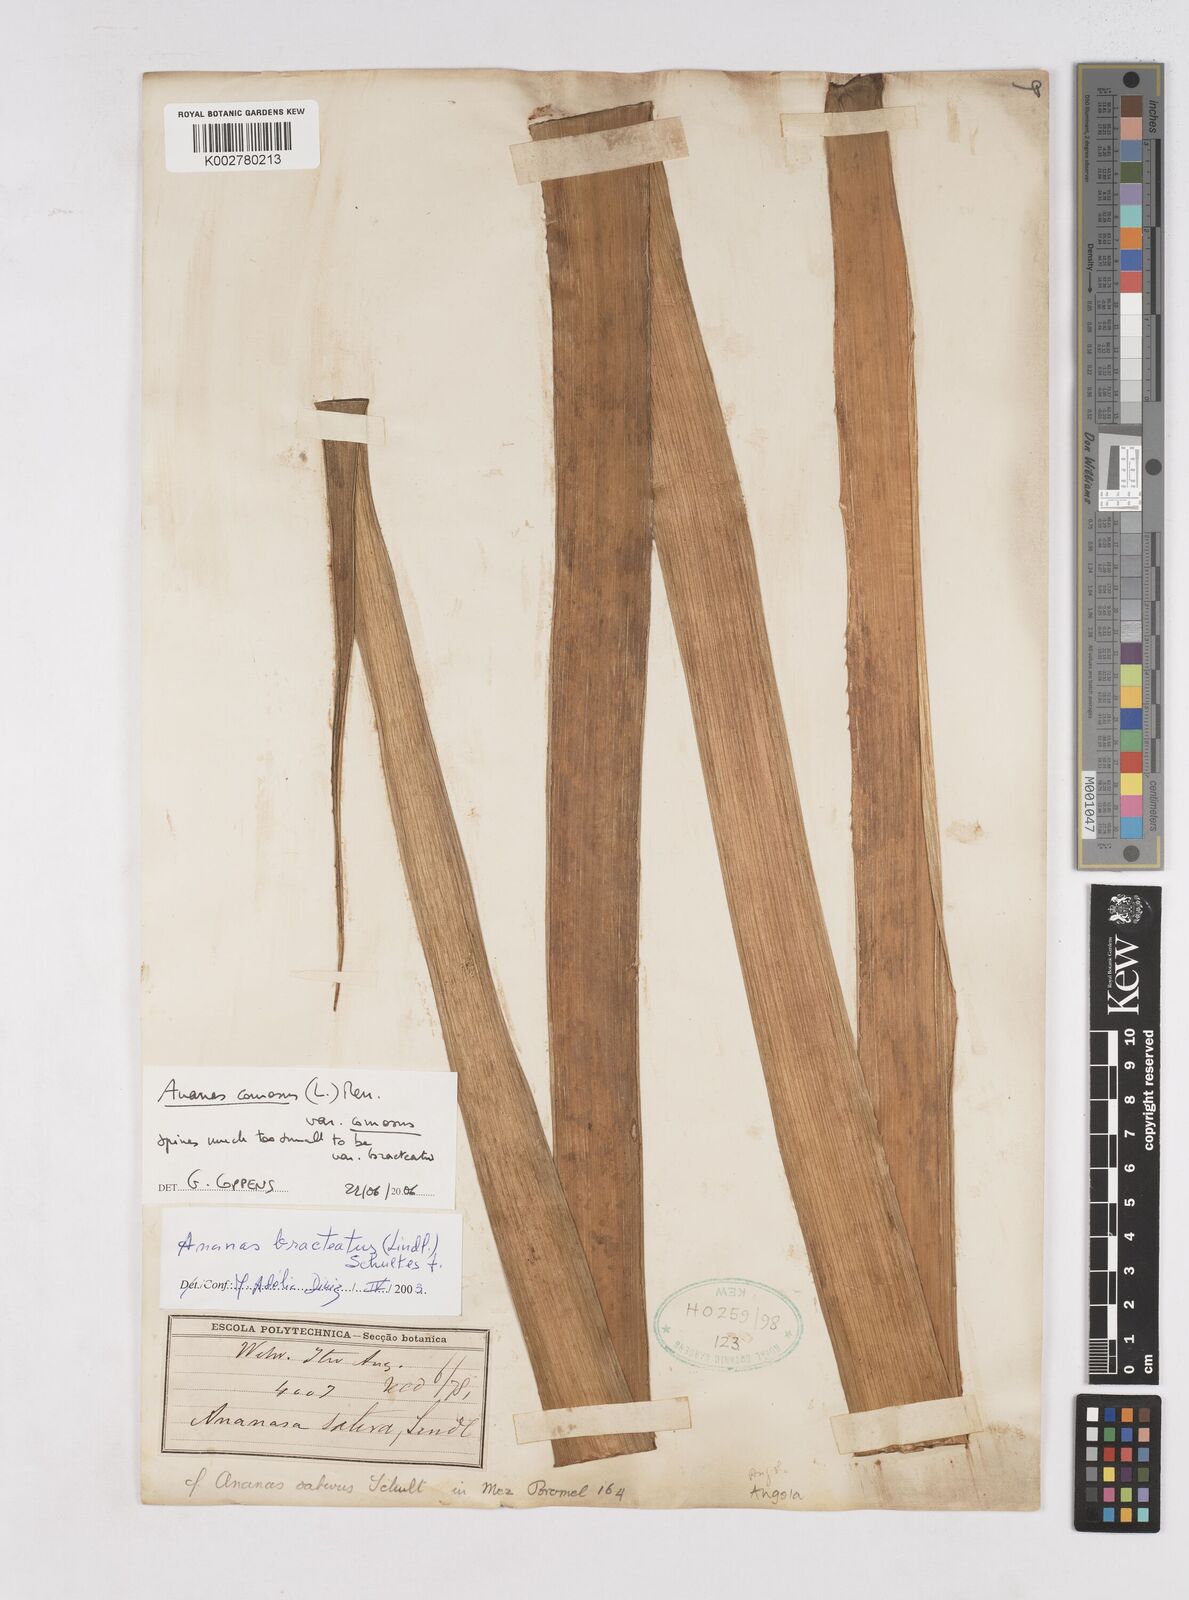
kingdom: Plantae
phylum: Tracheophyta
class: Liliopsida
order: Poales
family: Bromeliaceae
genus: Ananas
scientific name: Ananas comosus
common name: Pineapple
